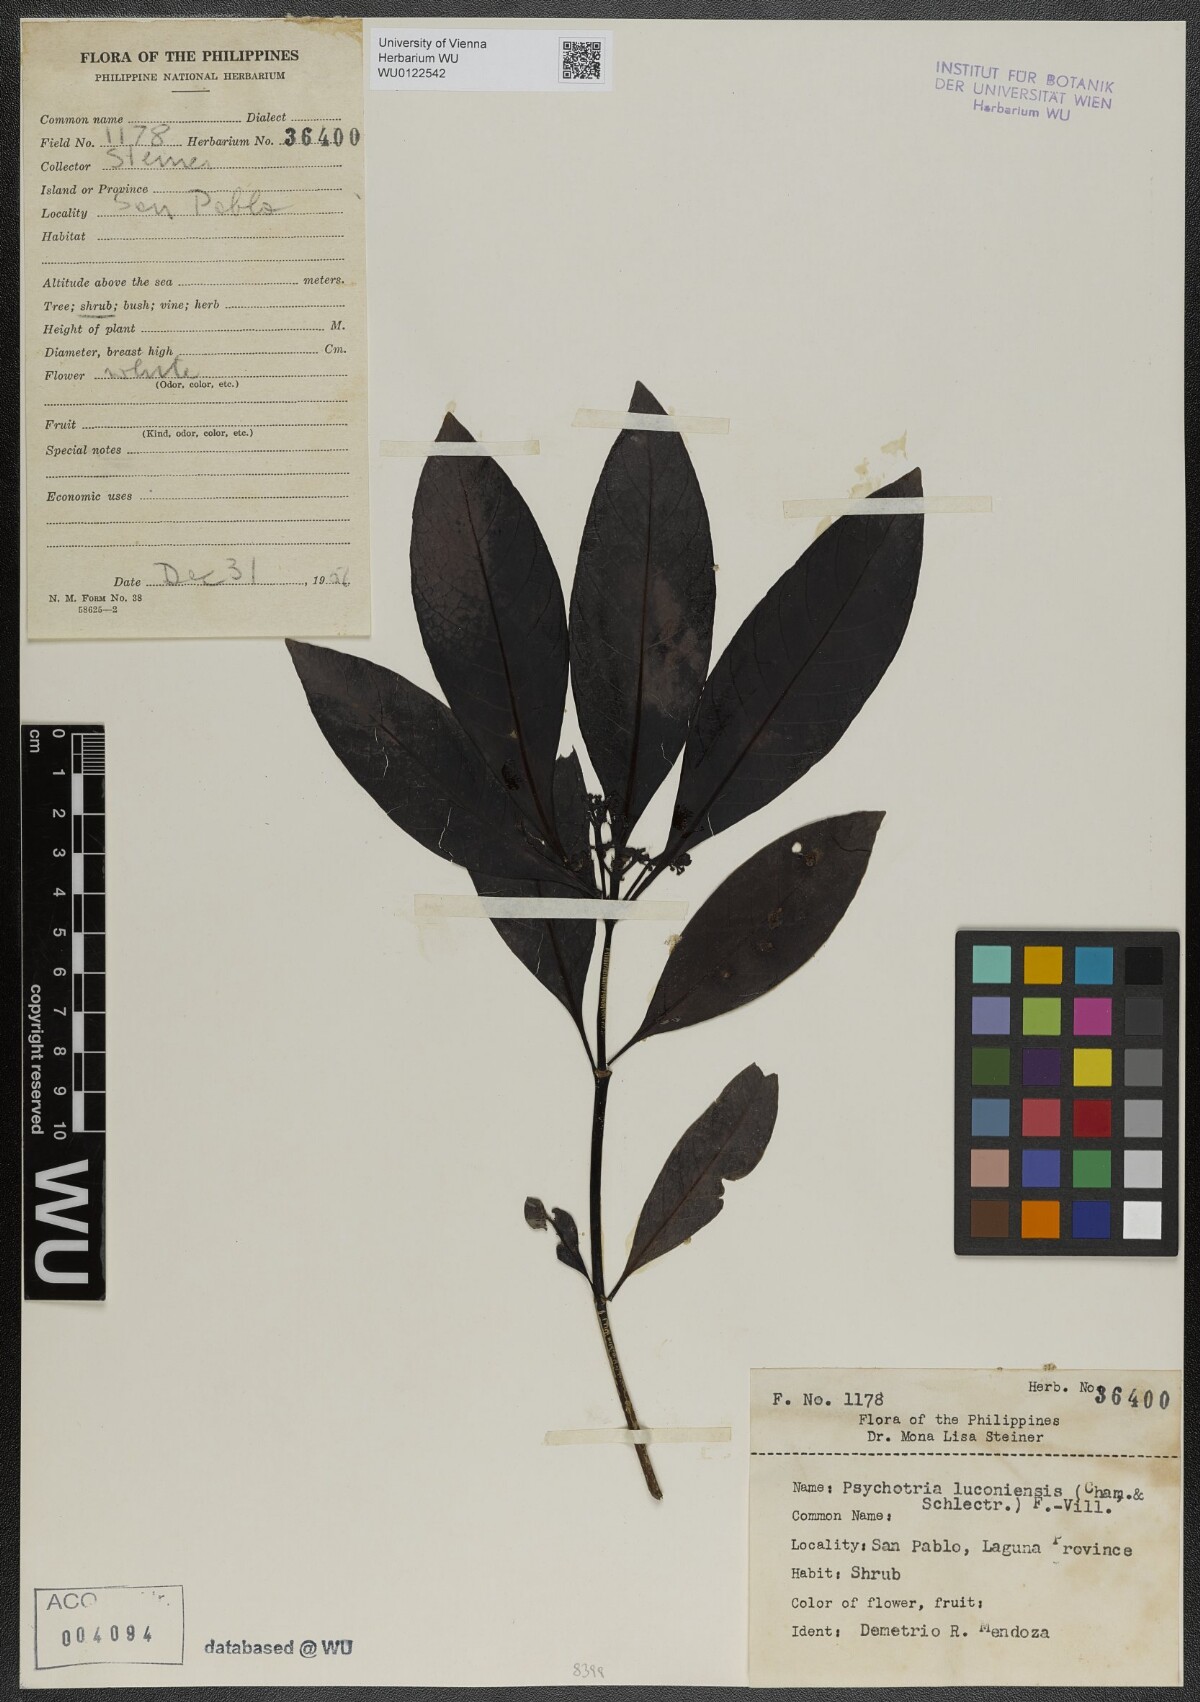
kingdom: Plantae
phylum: Tracheophyta
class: Magnoliopsida
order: Gentianales
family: Rubiaceae
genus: Psychotria
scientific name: Psychotria luzoniensis
